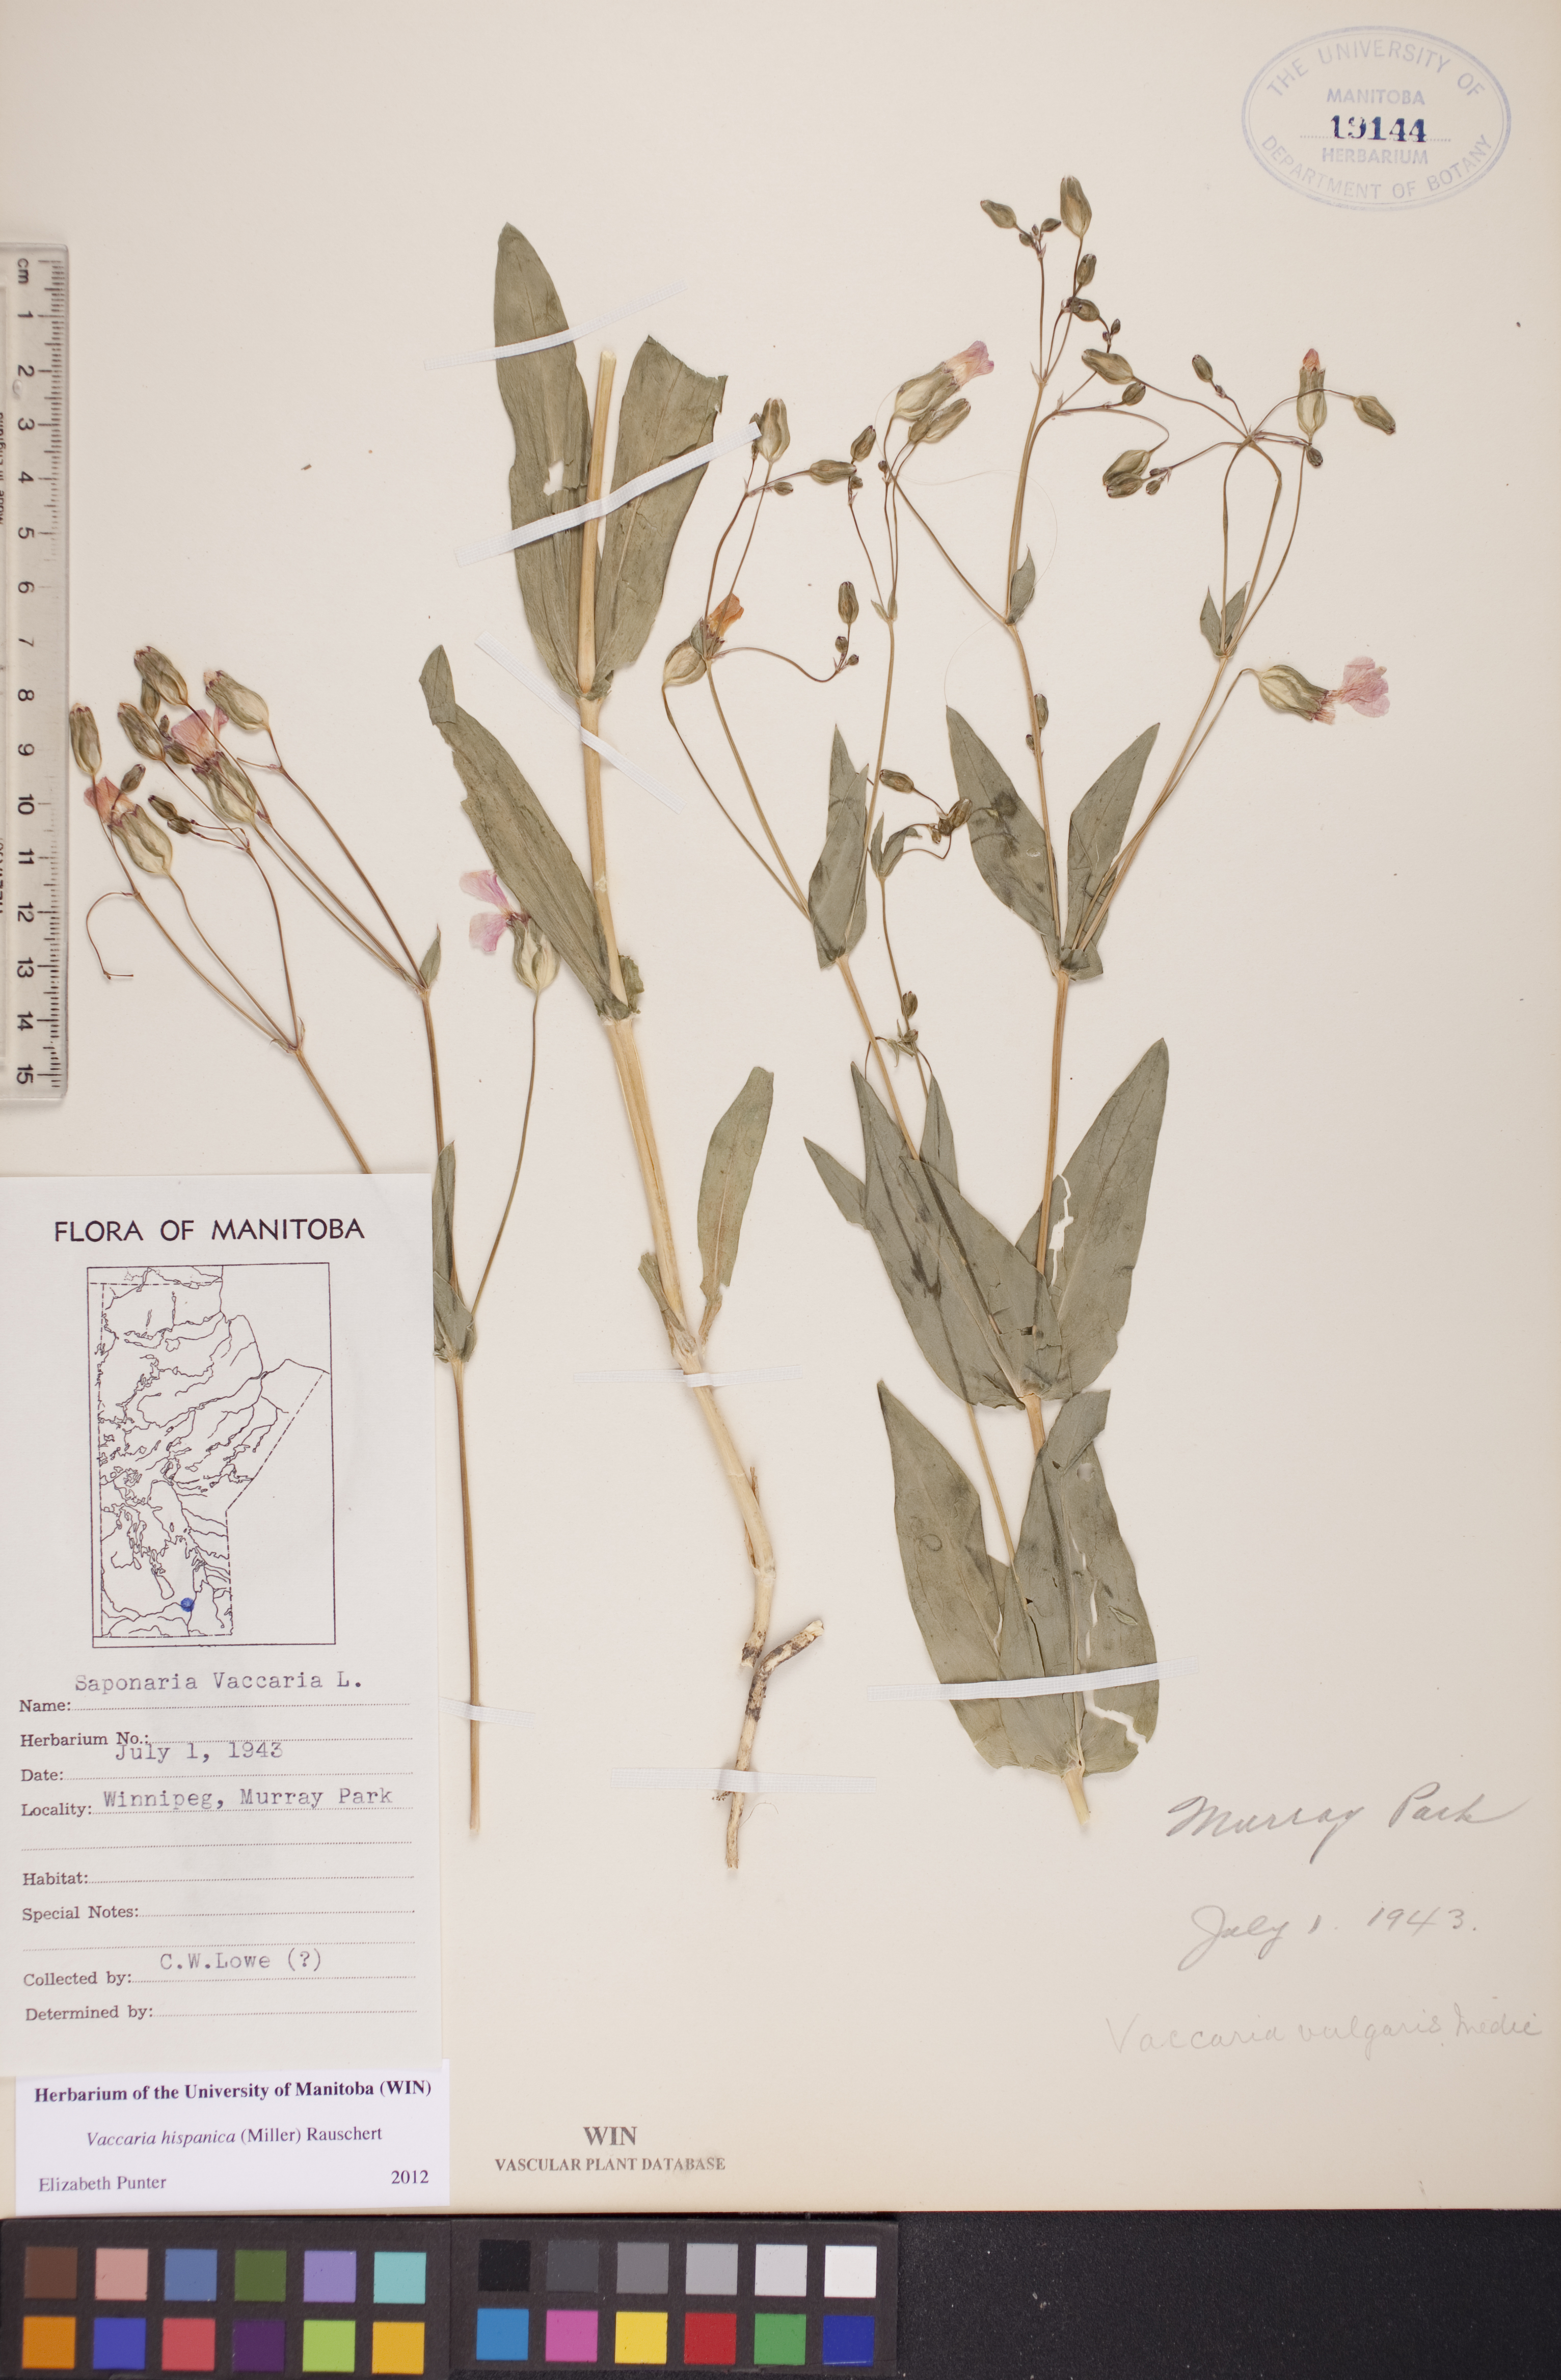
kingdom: Plantae
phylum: Tracheophyta
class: Magnoliopsida
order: Caryophyllales
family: Caryophyllaceae
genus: Gypsophila
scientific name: Gypsophila vaccaria
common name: Cow soapwort
